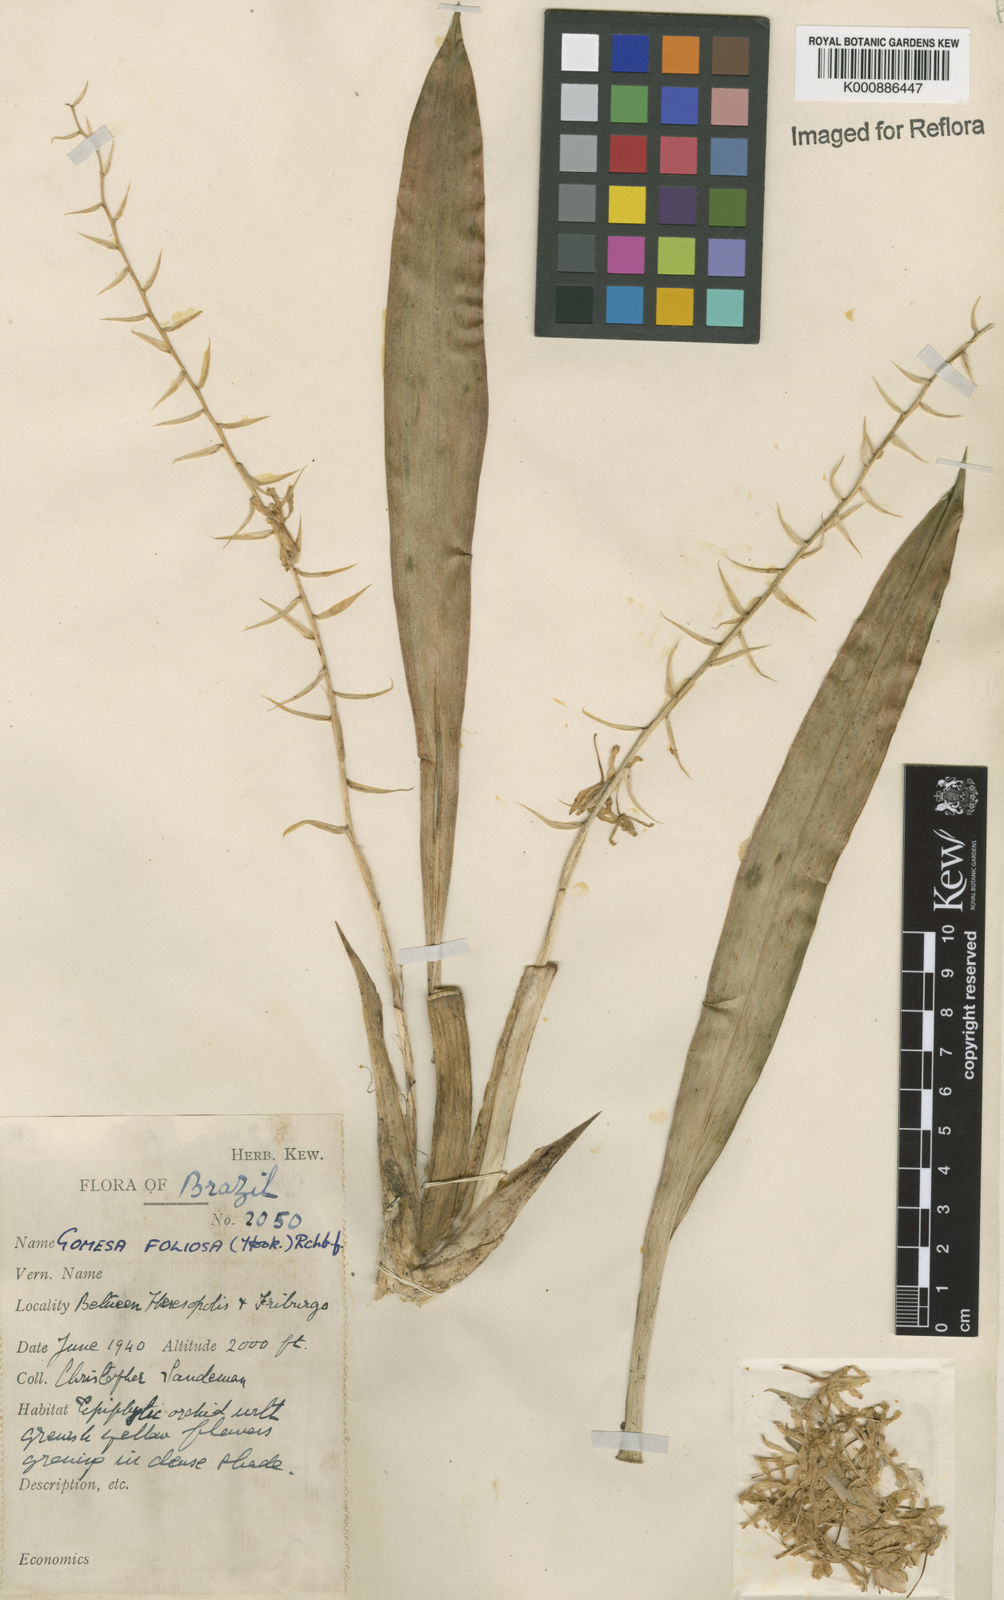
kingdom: Plantae
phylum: Tracheophyta
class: Liliopsida
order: Asparagales
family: Orchidaceae
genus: Gomesa
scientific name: Gomesa foliosa
